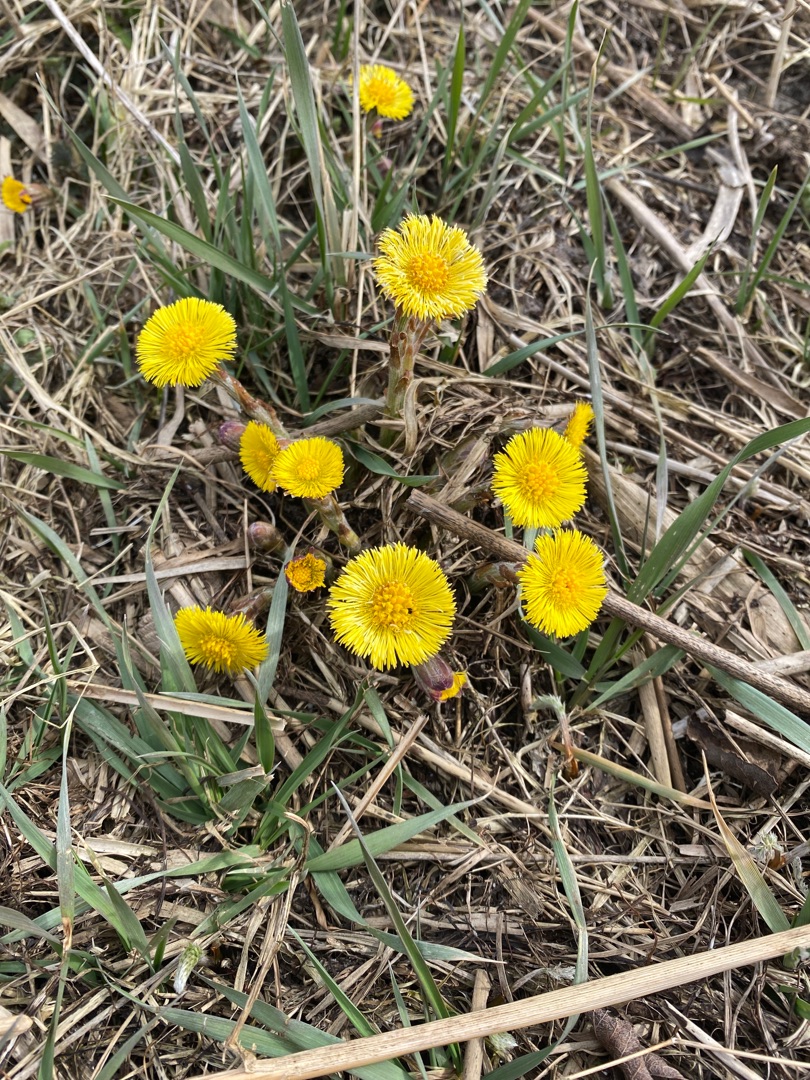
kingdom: Plantae
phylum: Tracheophyta
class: Magnoliopsida
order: Asterales
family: Asteraceae
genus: Tussilago
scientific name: Tussilago farfara
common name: Følfod
